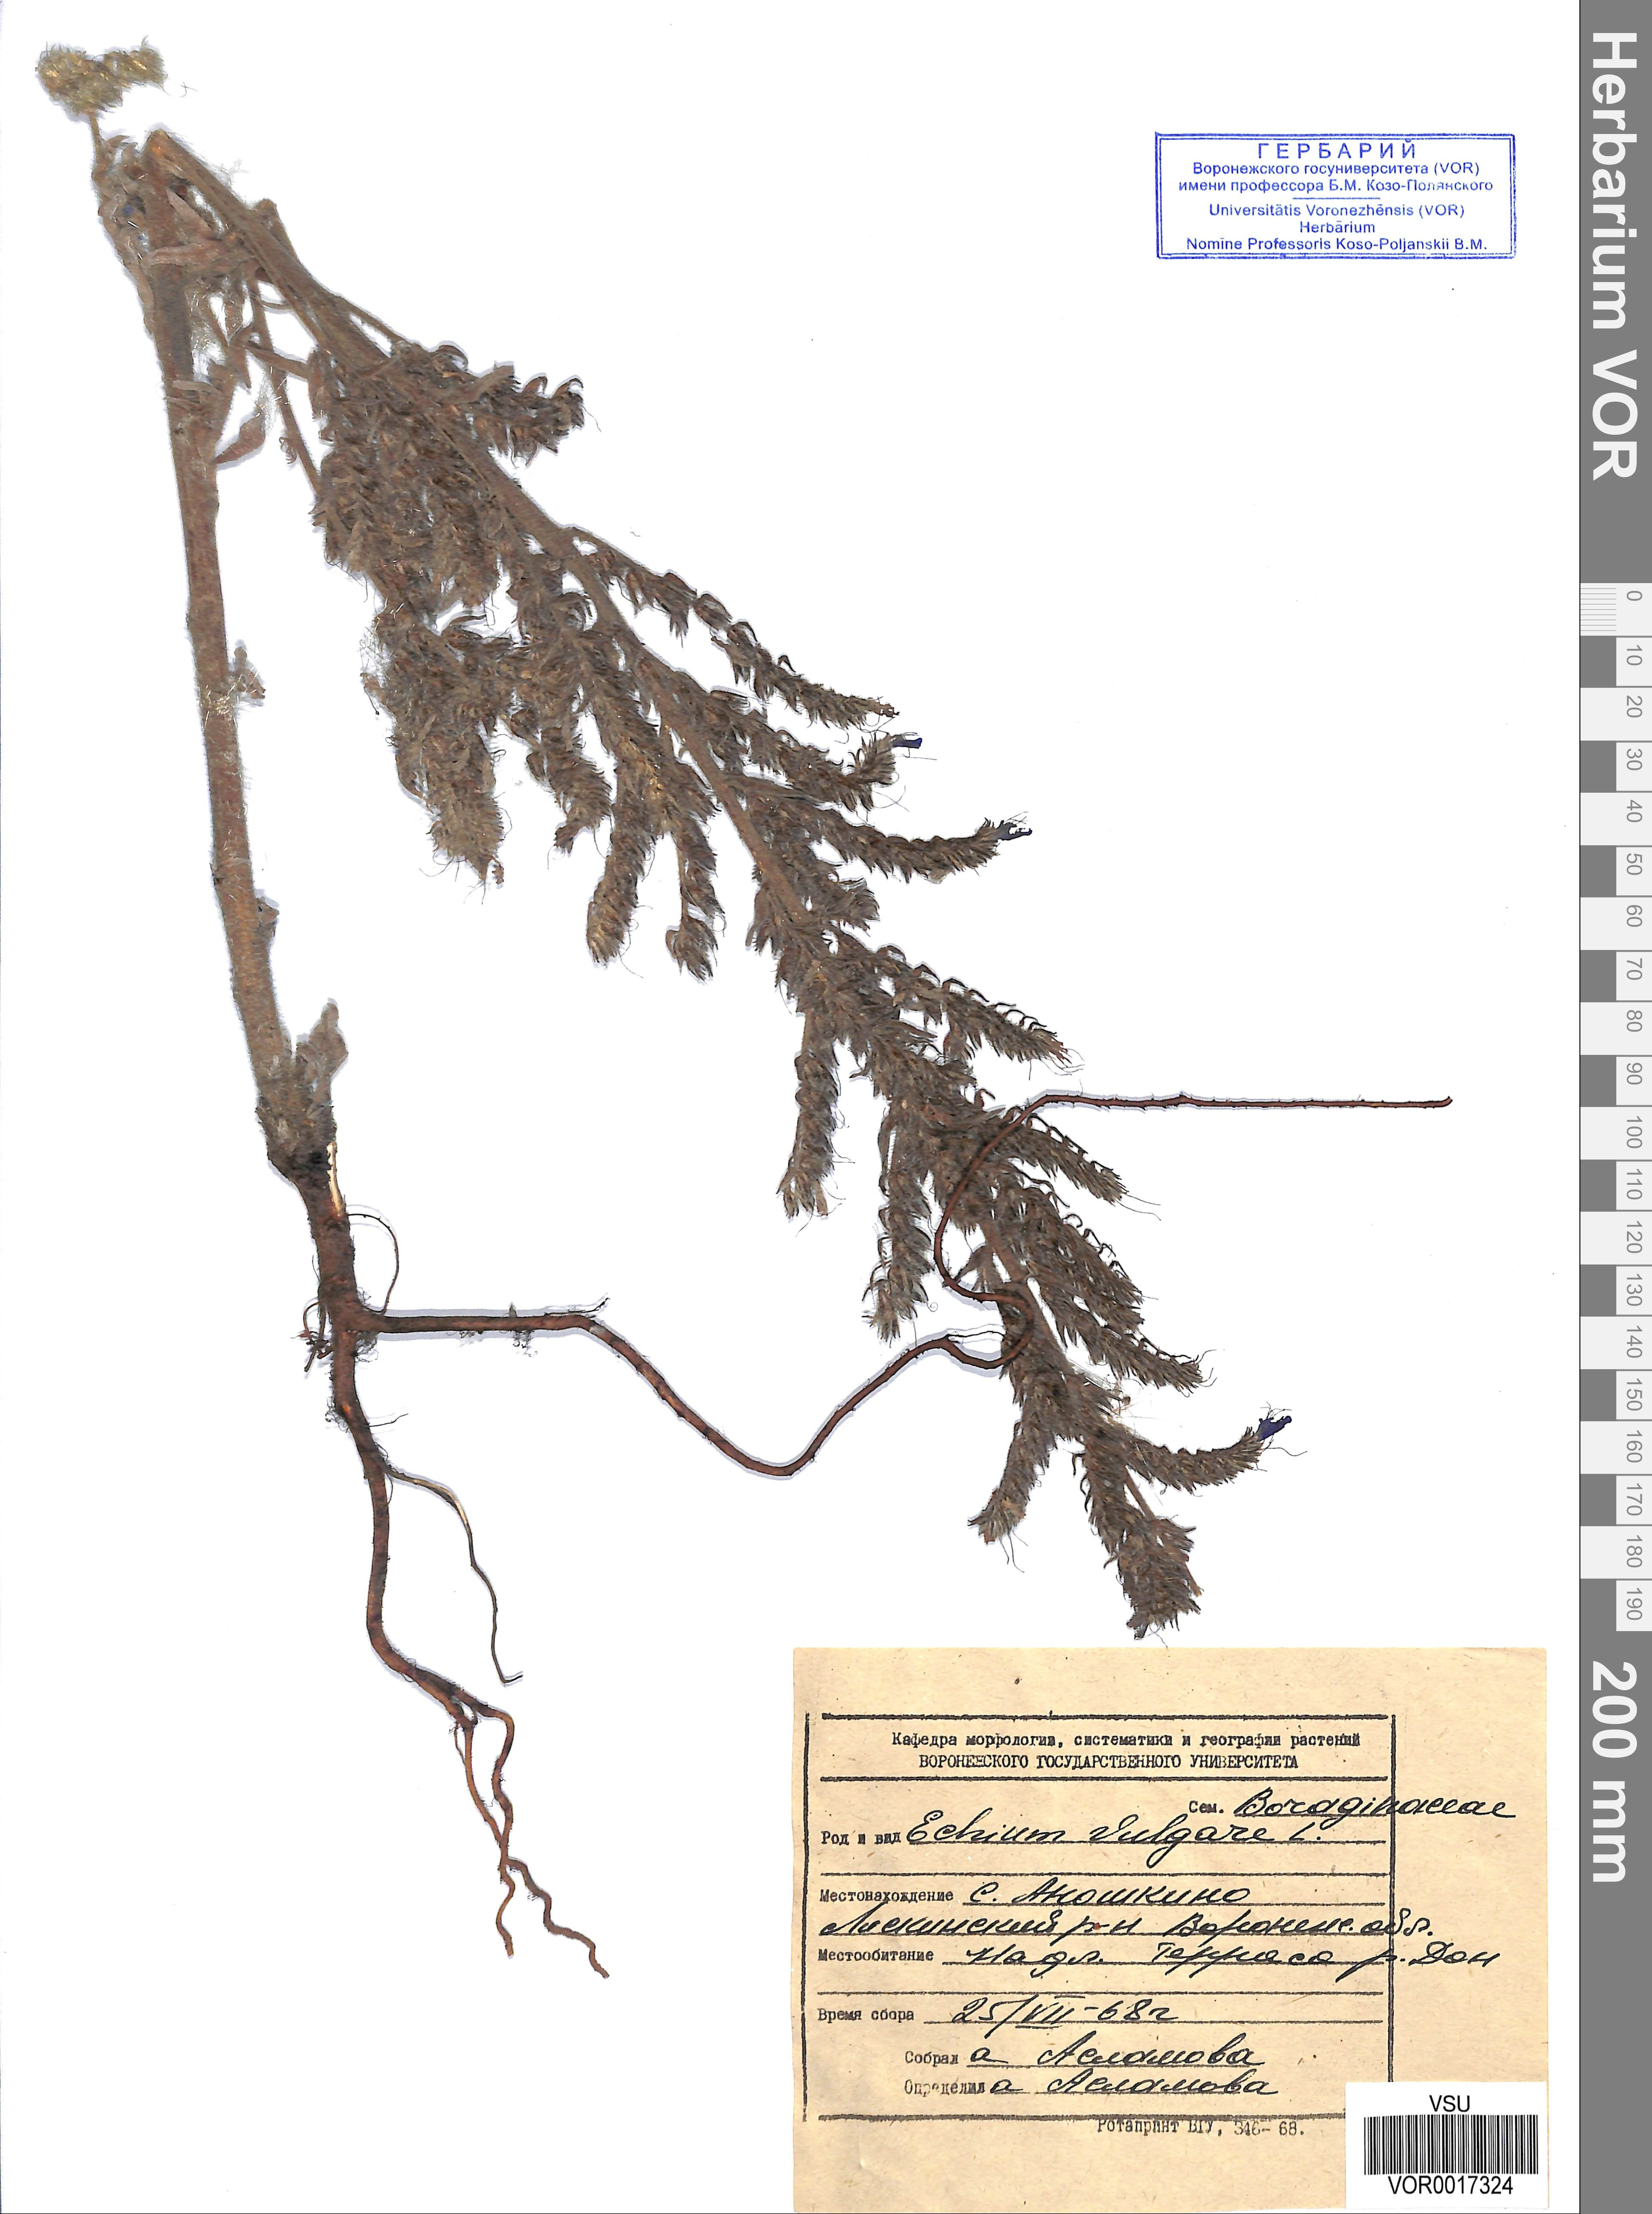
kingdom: Plantae
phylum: Tracheophyta
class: Magnoliopsida
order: Boraginales
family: Boraginaceae
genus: Echium
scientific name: Echium vulgare
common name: Common viper's bugloss
